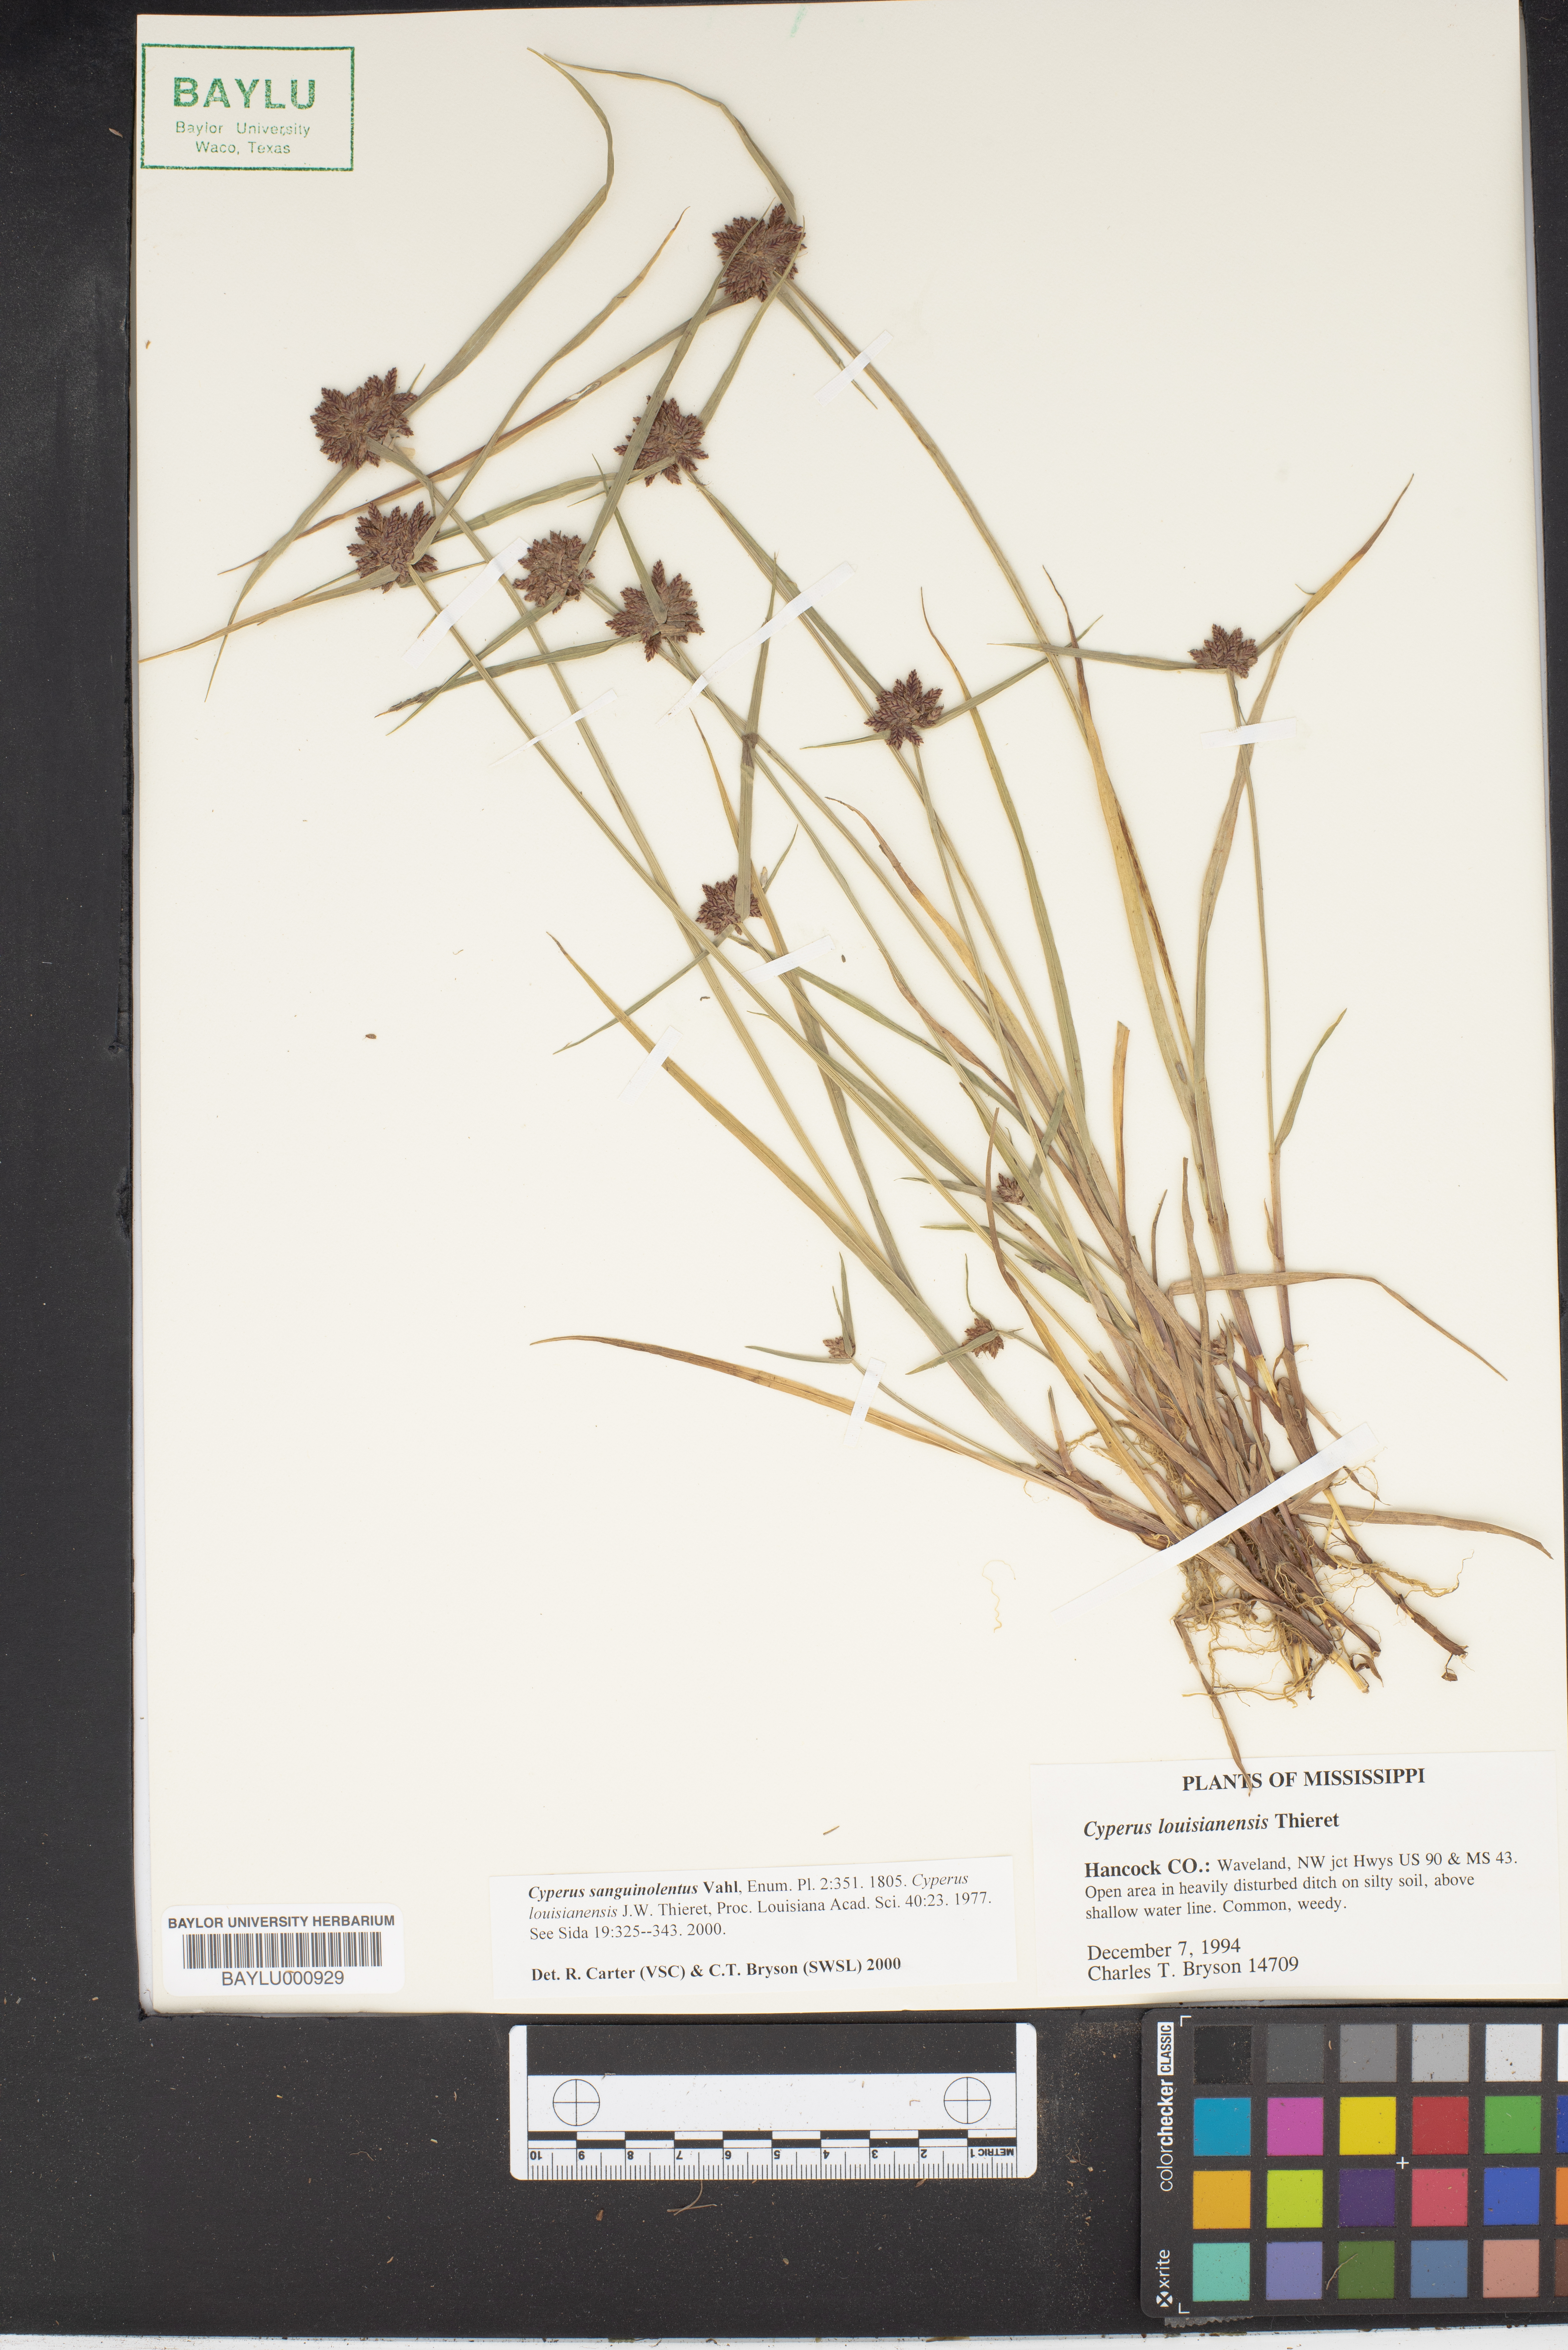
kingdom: Plantae
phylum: Tracheophyta
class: Liliopsida
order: Poales
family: Cyperaceae
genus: Cyperus
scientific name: Cyperus sanguinolentus
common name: Purpleglume flatsedge
